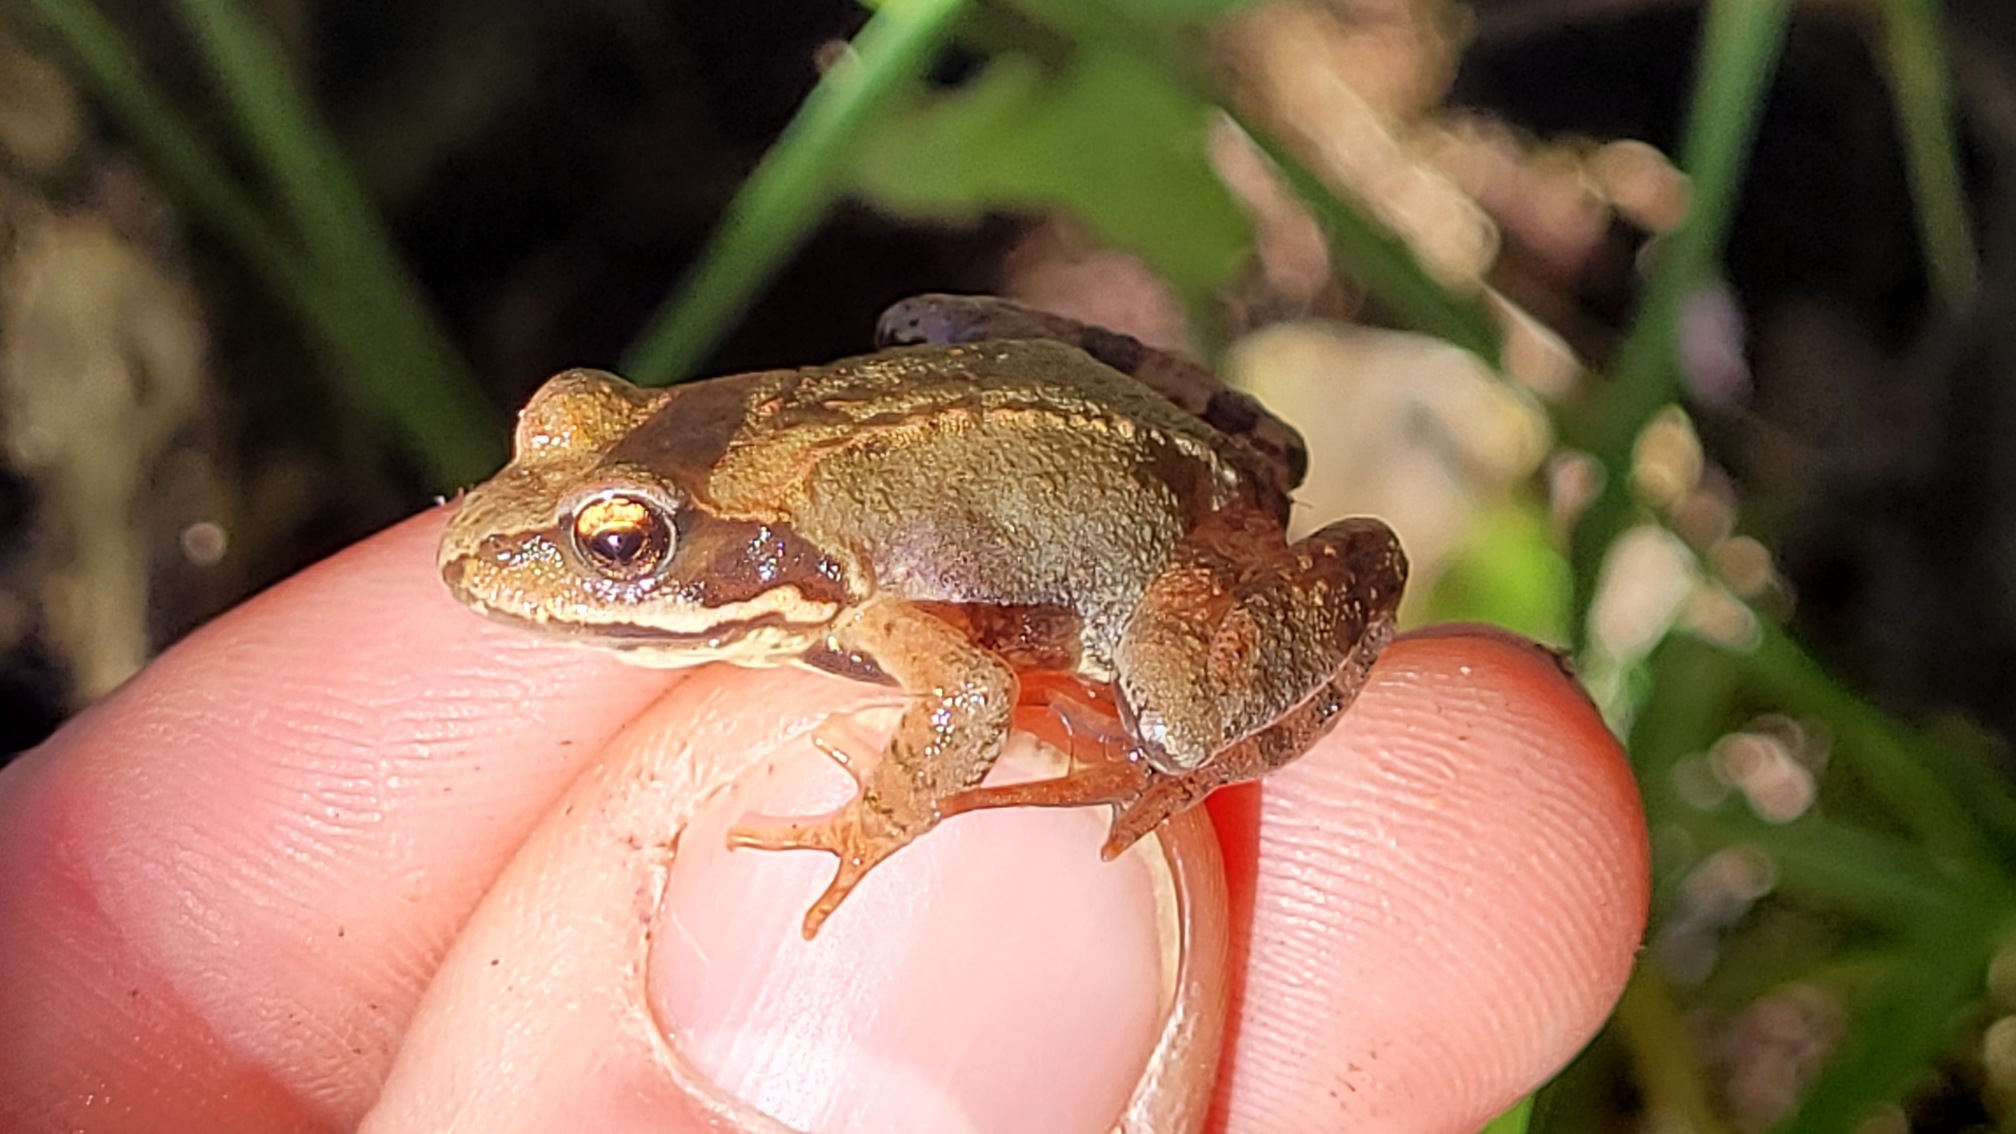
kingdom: Animalia
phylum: Chordata
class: Amphibia
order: Anura
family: Ranidae
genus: Rana
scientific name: Rana temporaria
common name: Butsnudet frø
